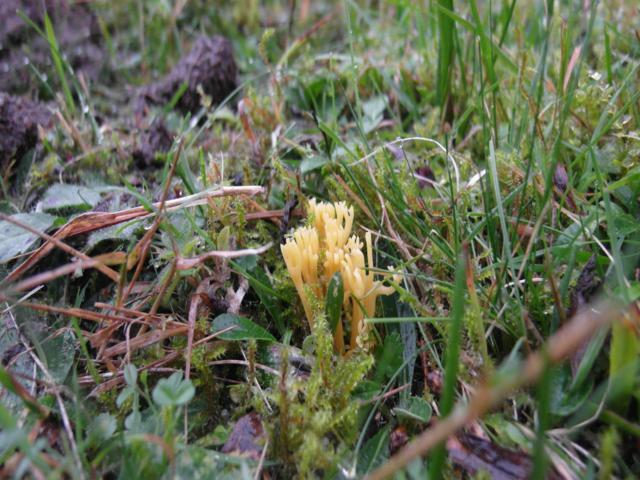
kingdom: Fungi
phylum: Basidiomycota
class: Agaricomycetes
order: Agaricales
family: Clavariaceae
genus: Clavulinopsis
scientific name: Clavulinopsis corniculata
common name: eng-køllesvamp
